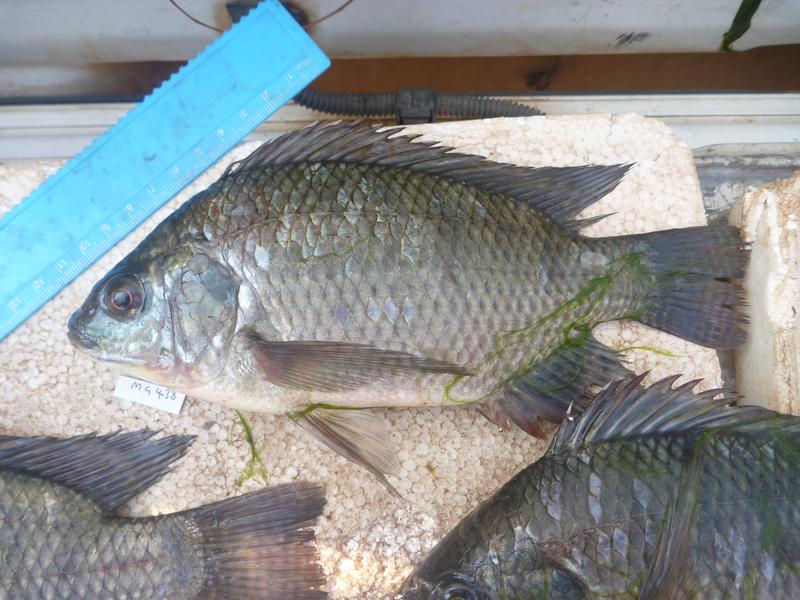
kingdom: Animalia
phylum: Chordata
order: Perciformes
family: Cichlidae
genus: Oreochromis
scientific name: Oreochromis niloticus
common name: Nile tilapia
